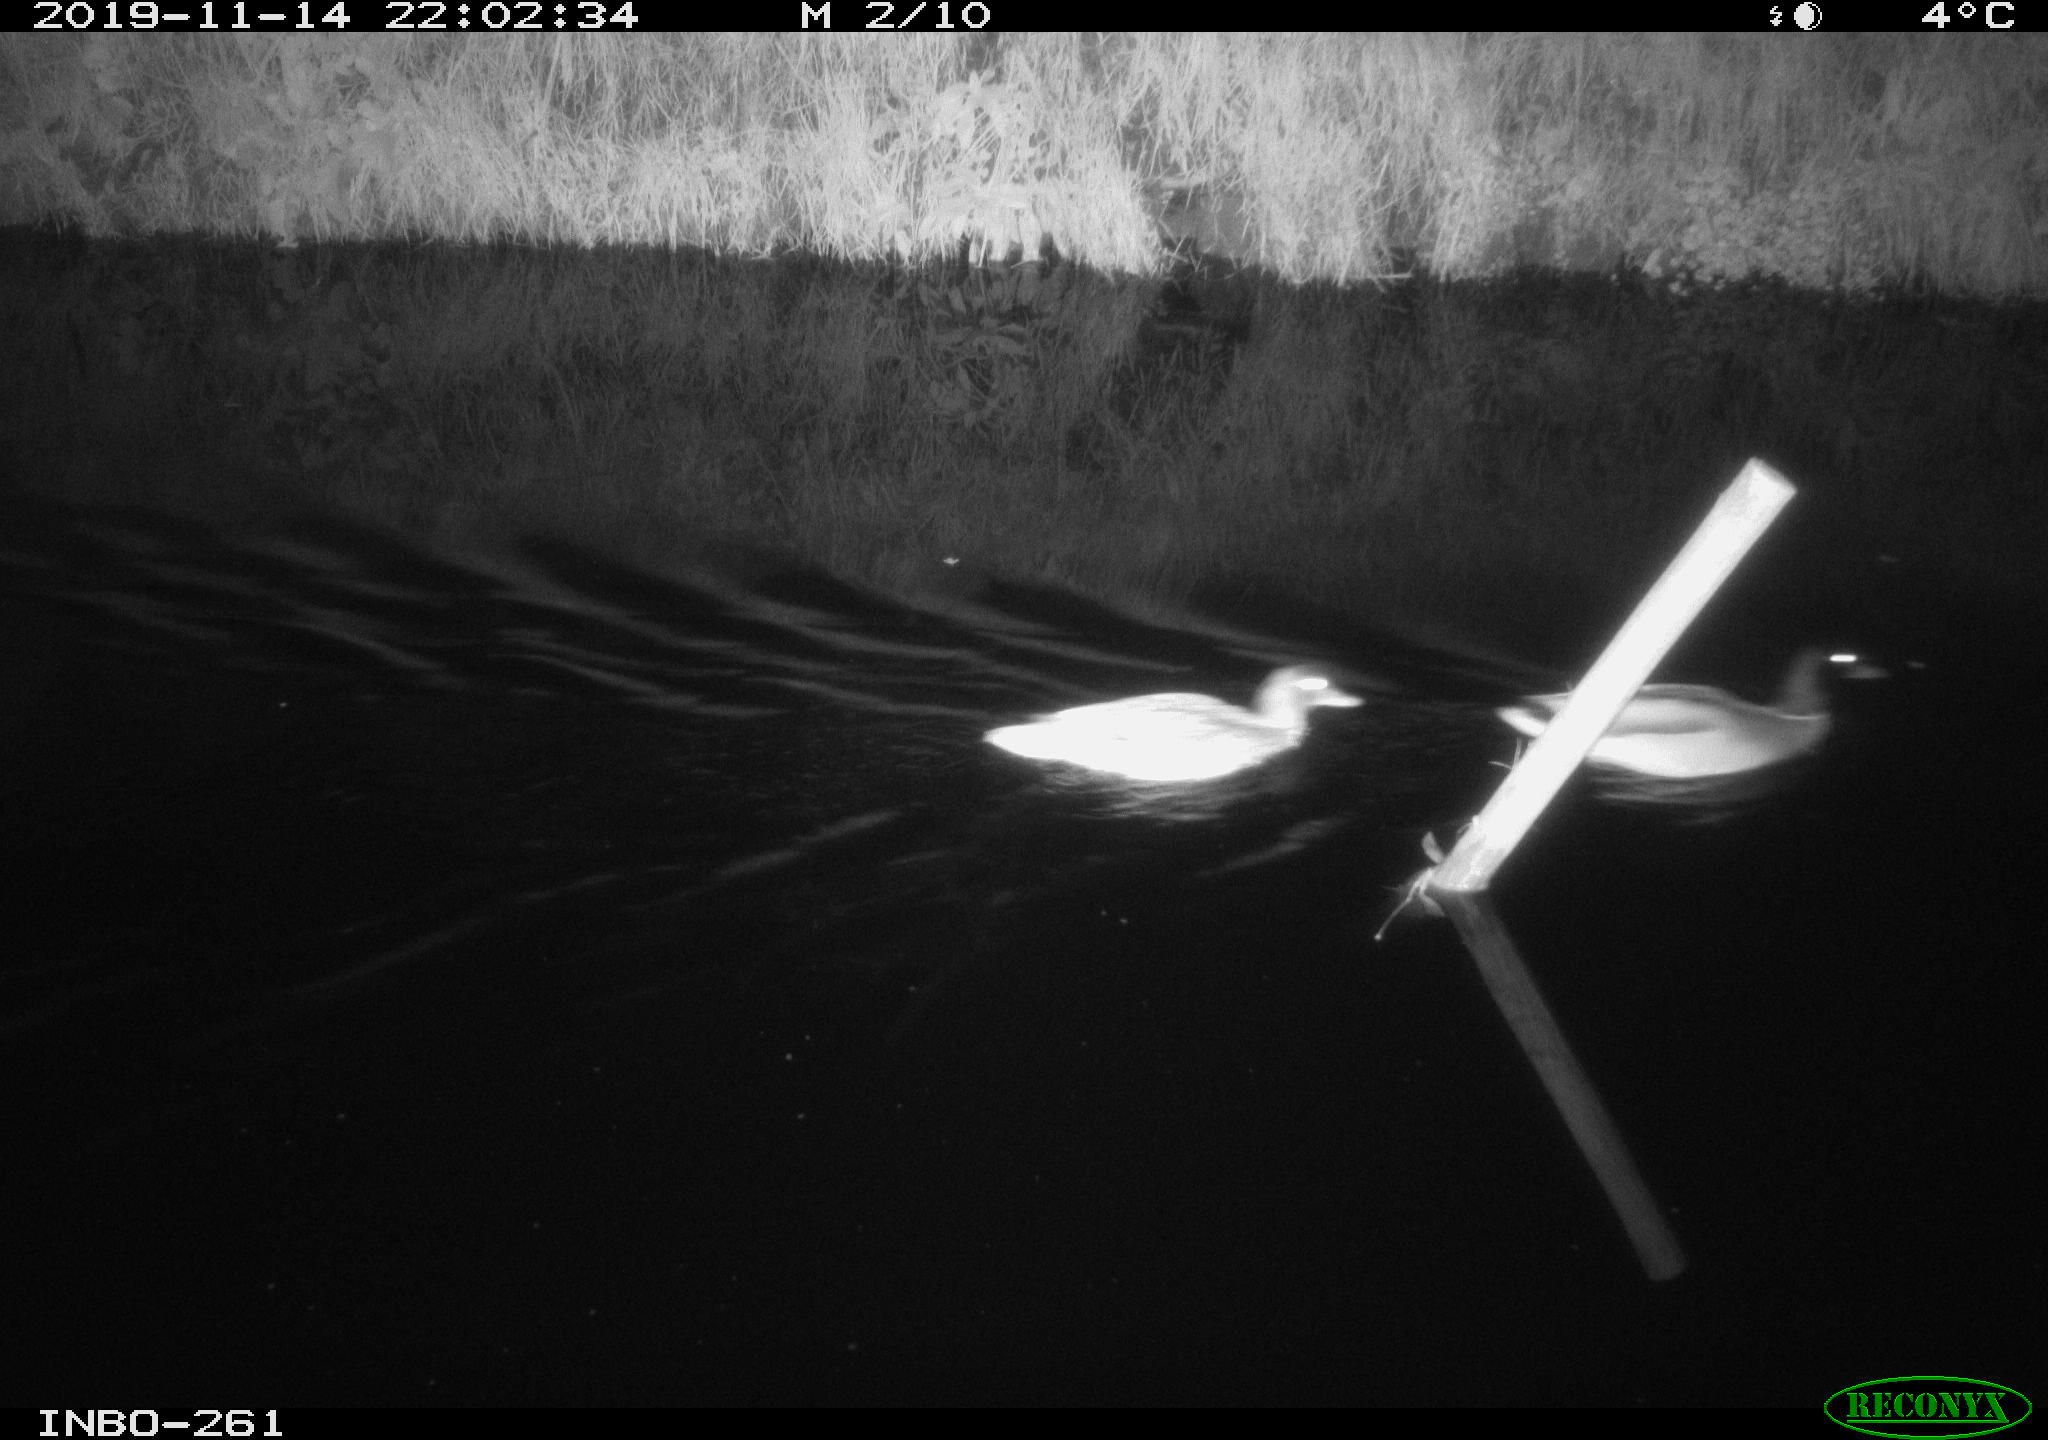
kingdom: Animalia
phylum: Chordata
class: Aves
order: Anseriformes
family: Anatidae
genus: Anas
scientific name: Anas platyrhynchos
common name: Mallard
